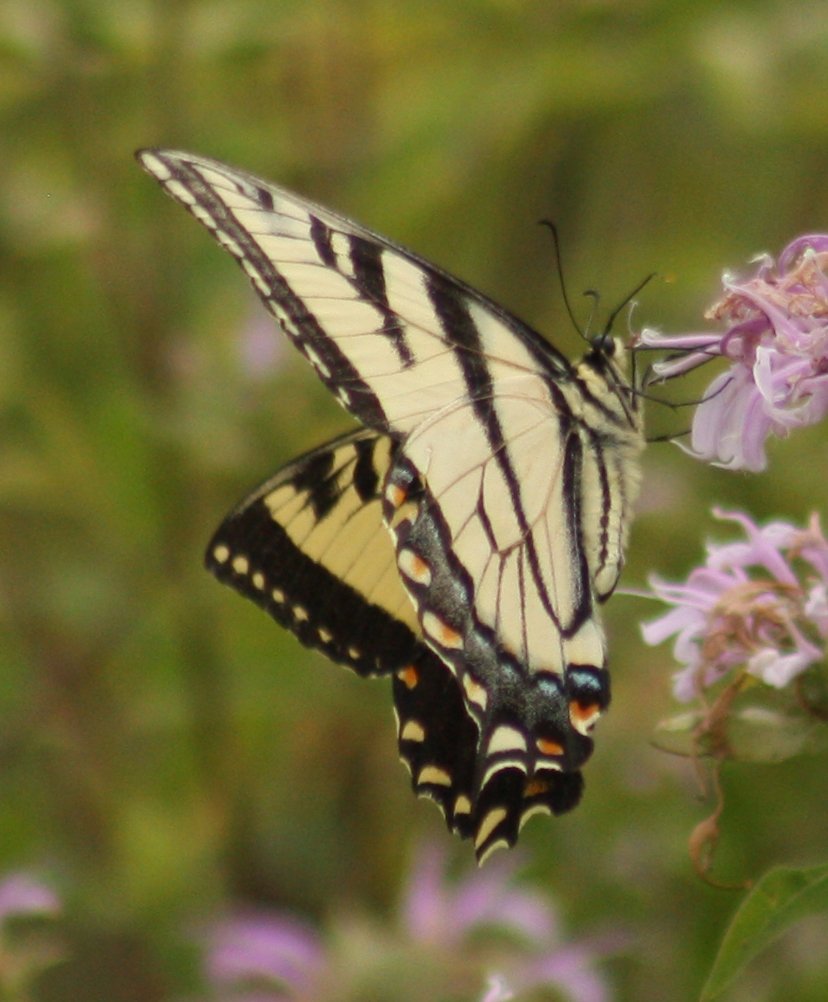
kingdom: Animalia
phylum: Arthropoda
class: Insecta
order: Lepidoptera
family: Papilionidae
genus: Pterourus
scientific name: Pterourus glaucus
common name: Eastern Tiger Swallowtail
